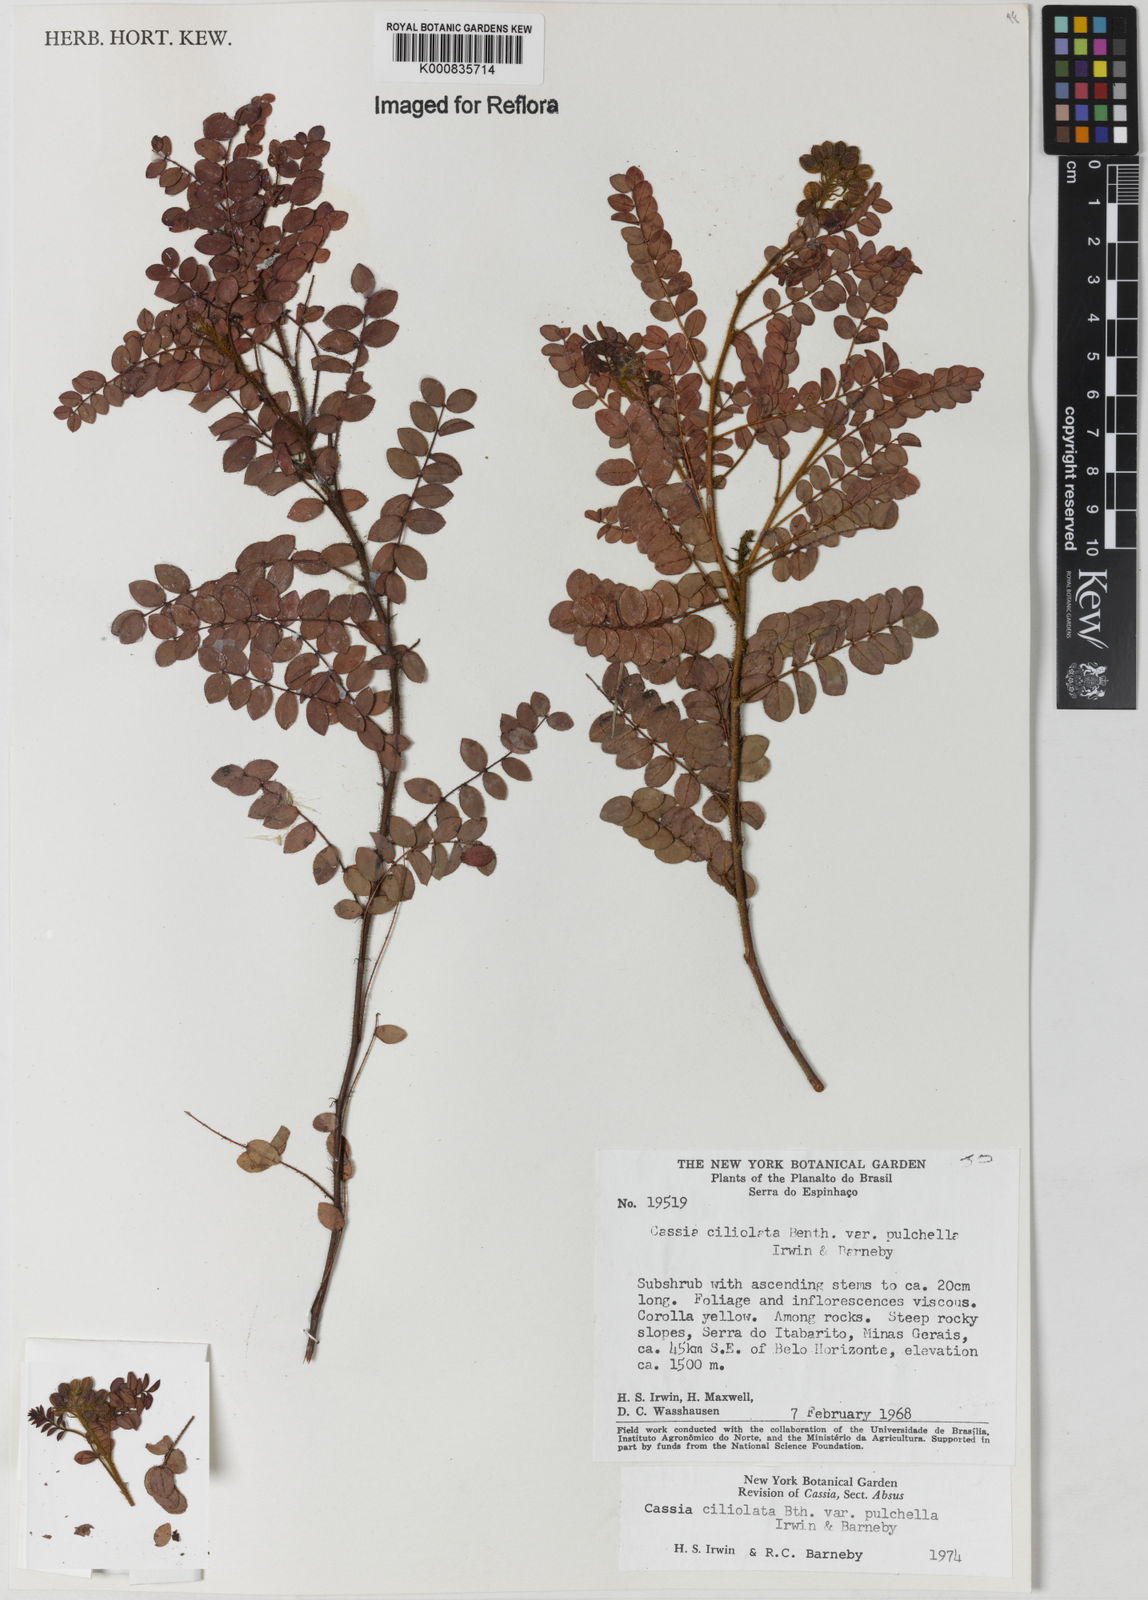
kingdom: Plantae
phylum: Tracheophyta
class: Magnoliopsida
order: Fabales
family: Fabaceae
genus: Chamaecrista
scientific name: Chamaecrista ciliolata
